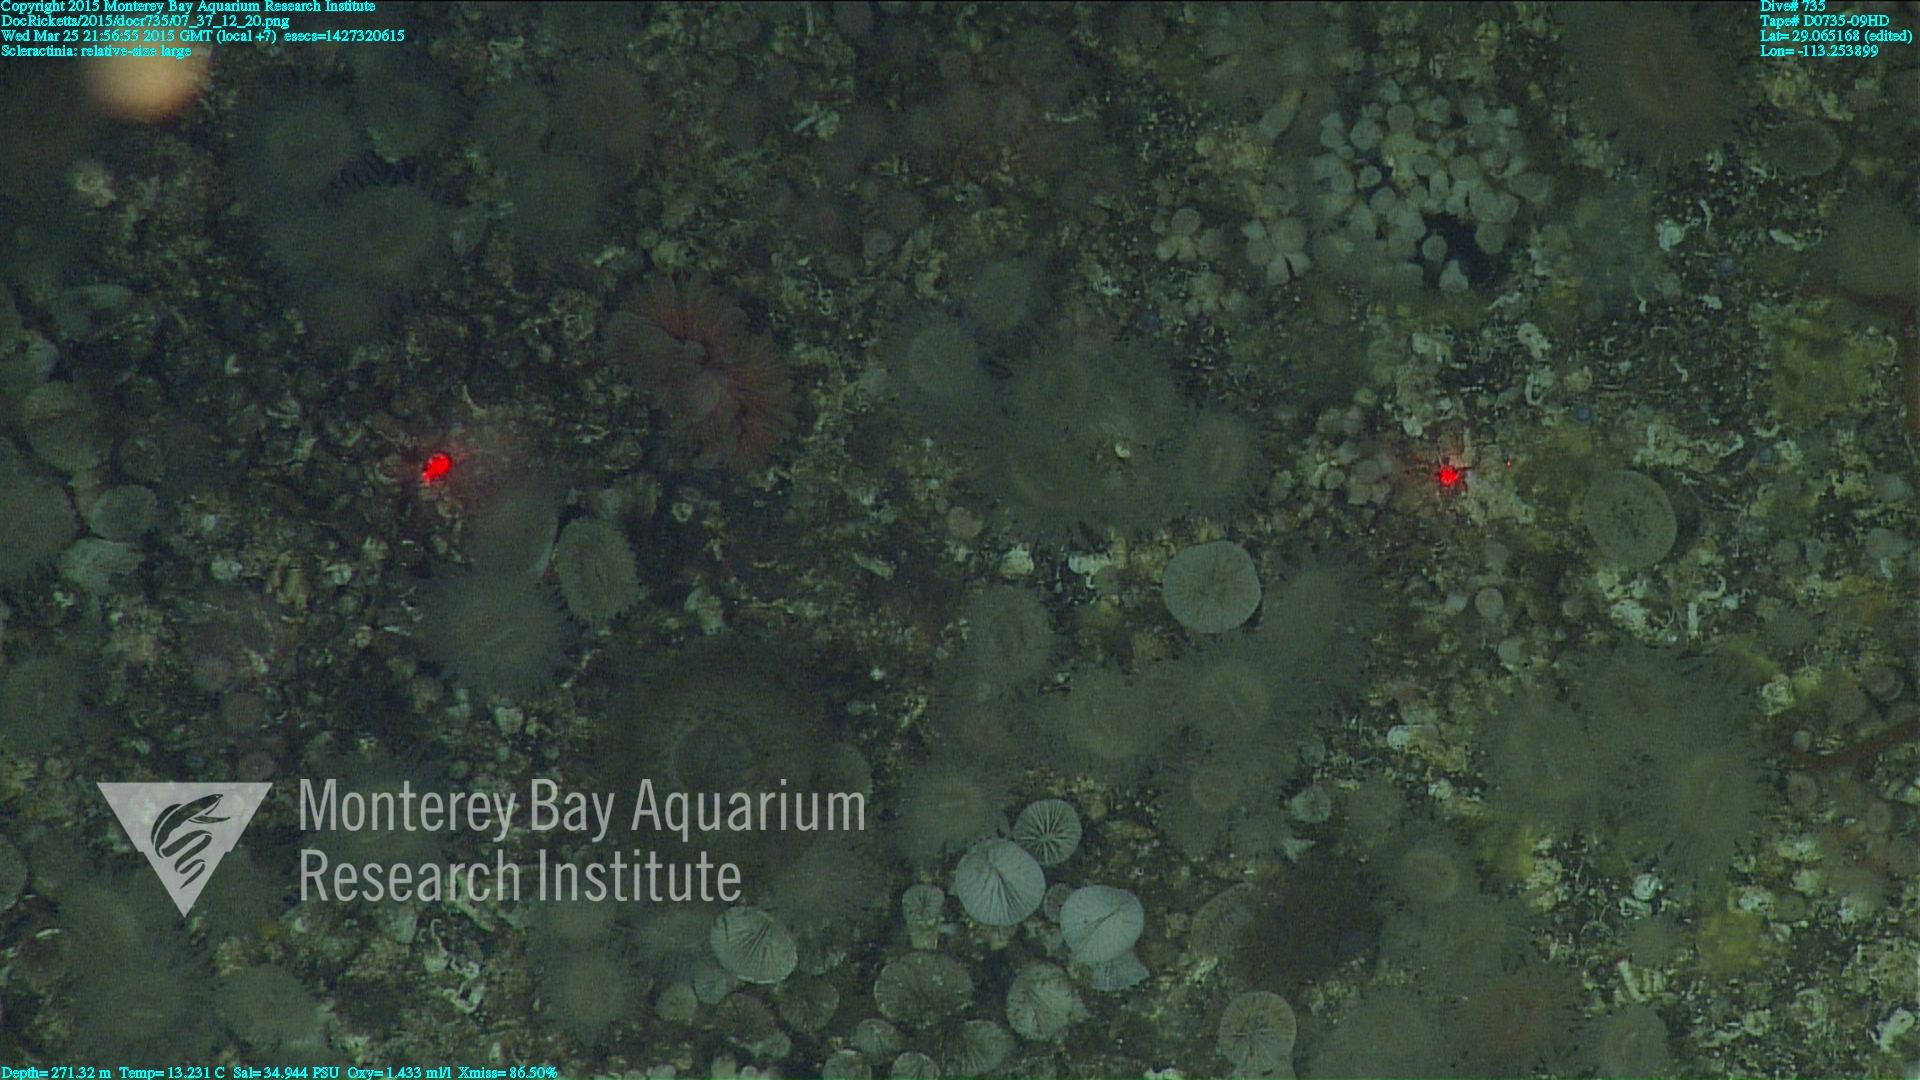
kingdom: Animalia
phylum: Cnidaria
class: Anthozoa
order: Scleractinia
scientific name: Scleractinia
